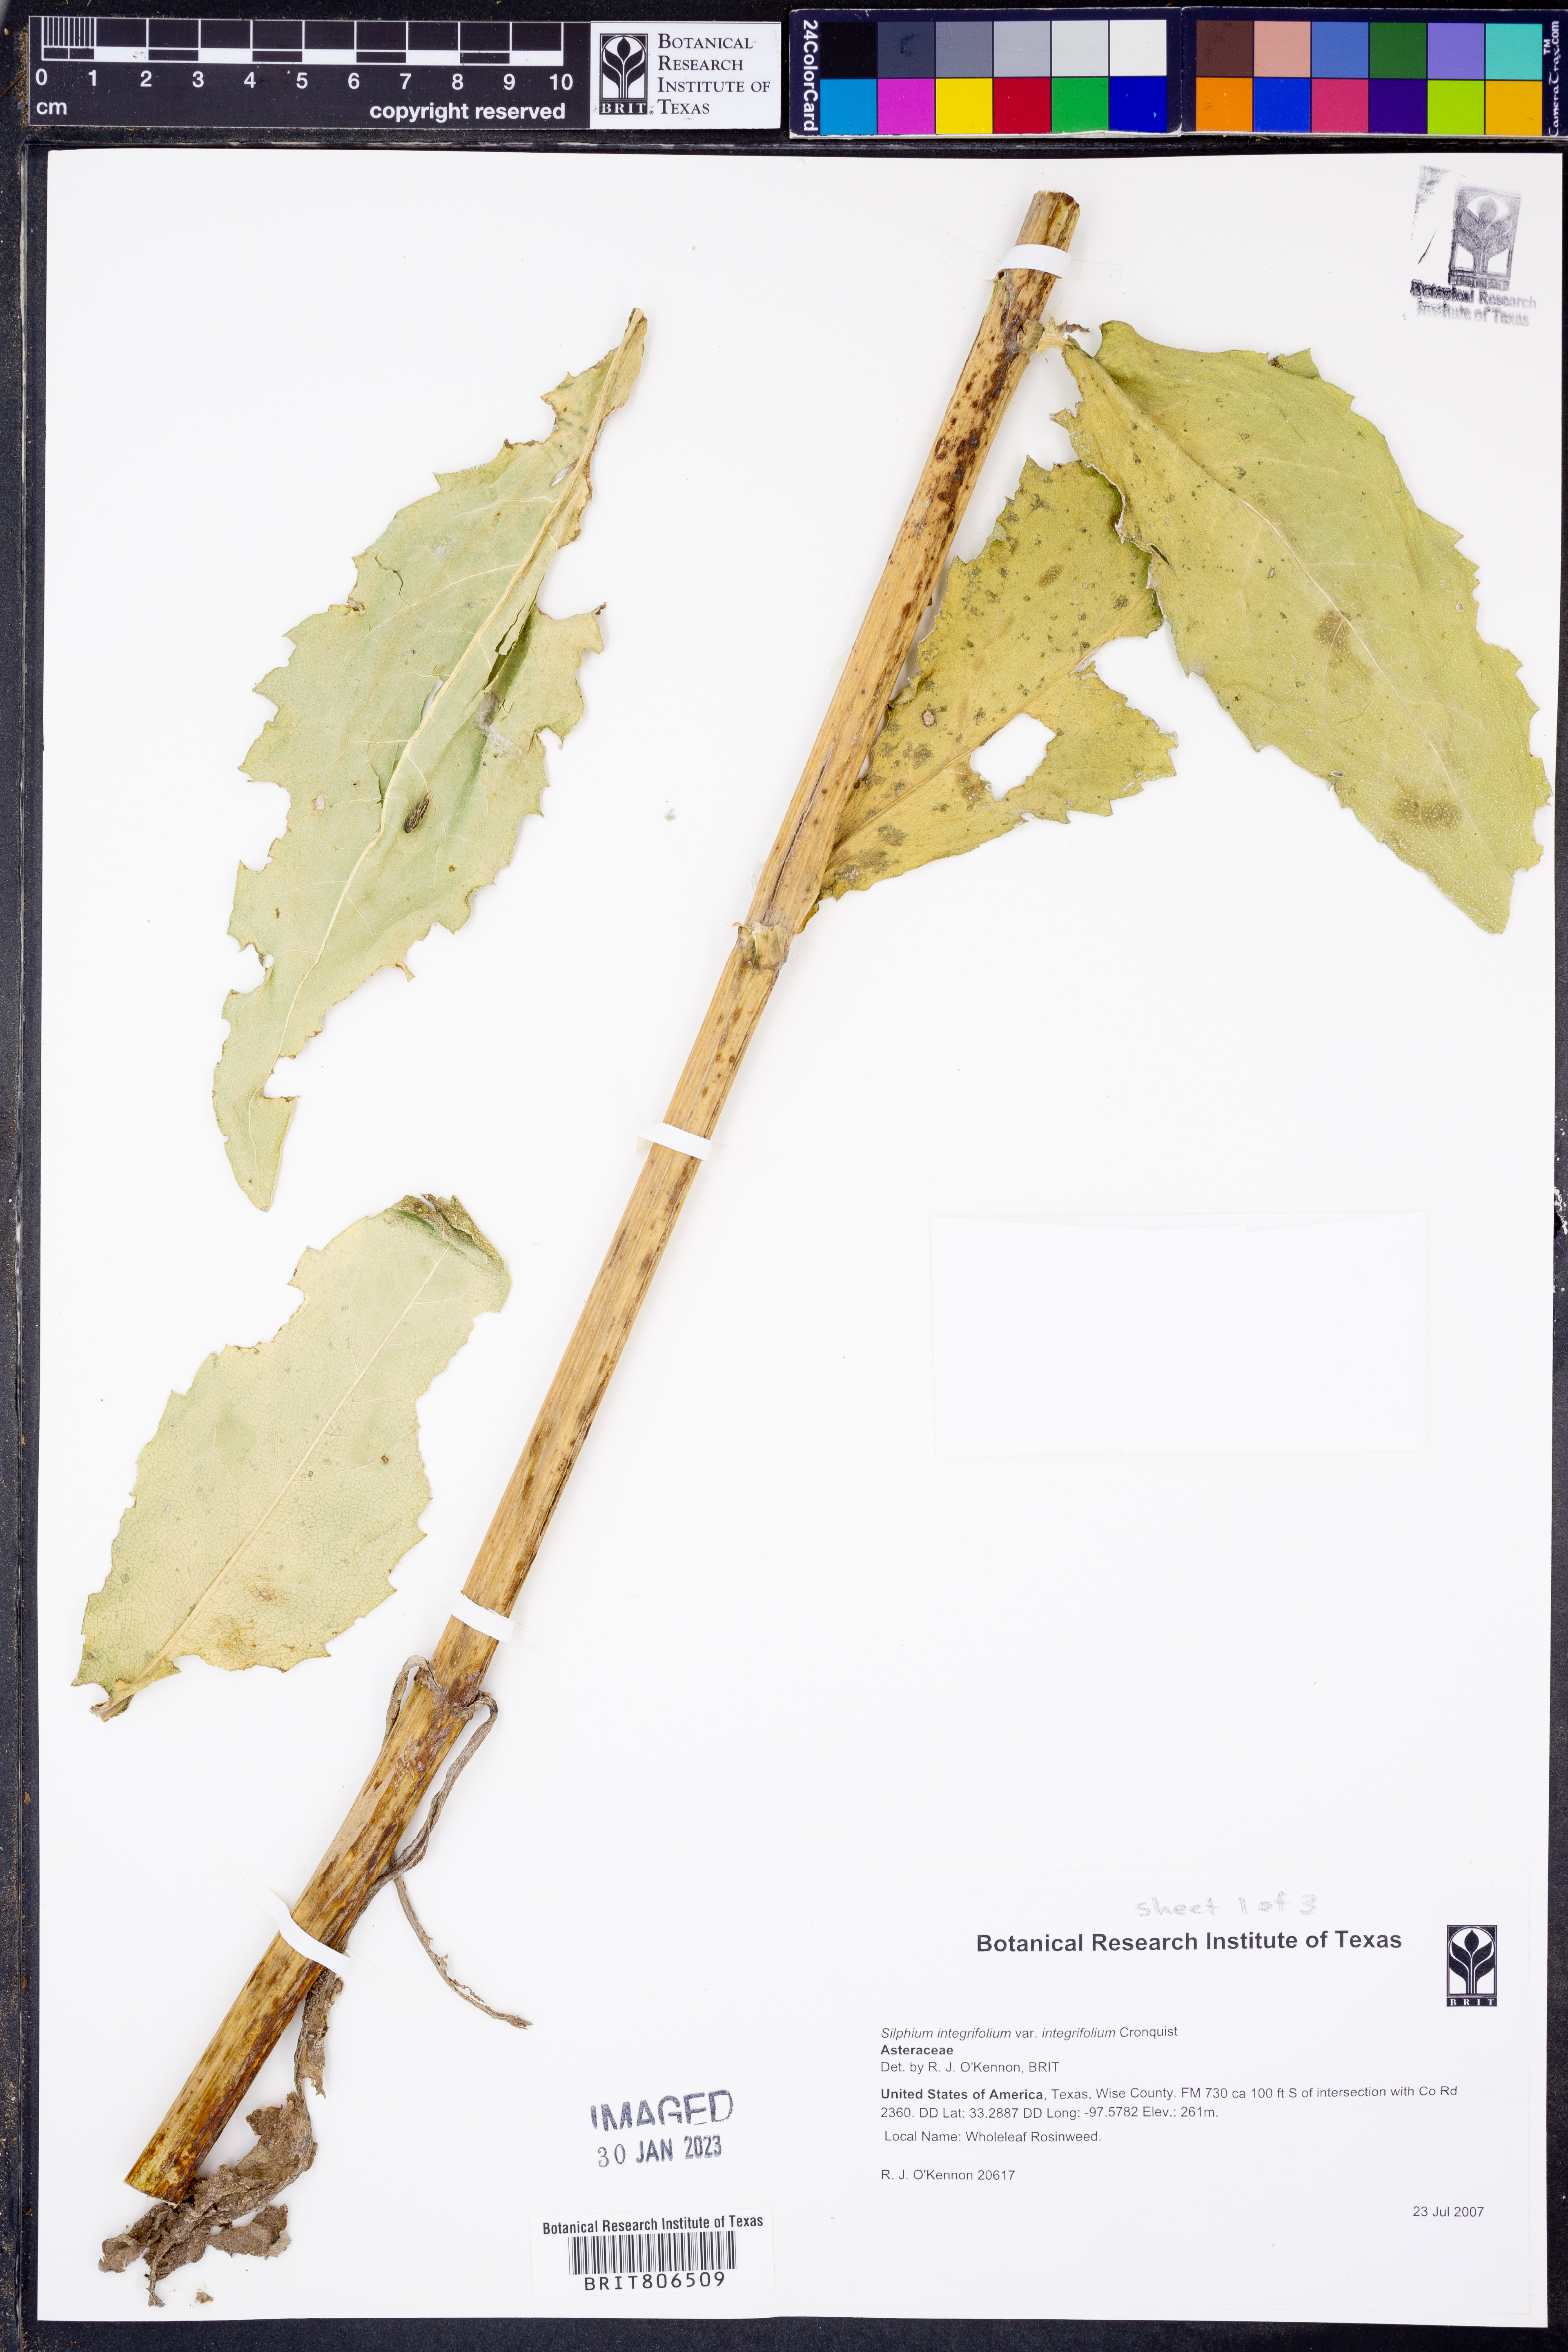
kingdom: Plantae
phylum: Tracheophyta
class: Magnoliopsida
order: Asterales
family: Asteraceae
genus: Silphium
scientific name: Silphium integrifolium
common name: Whole-leaf rosinweed
